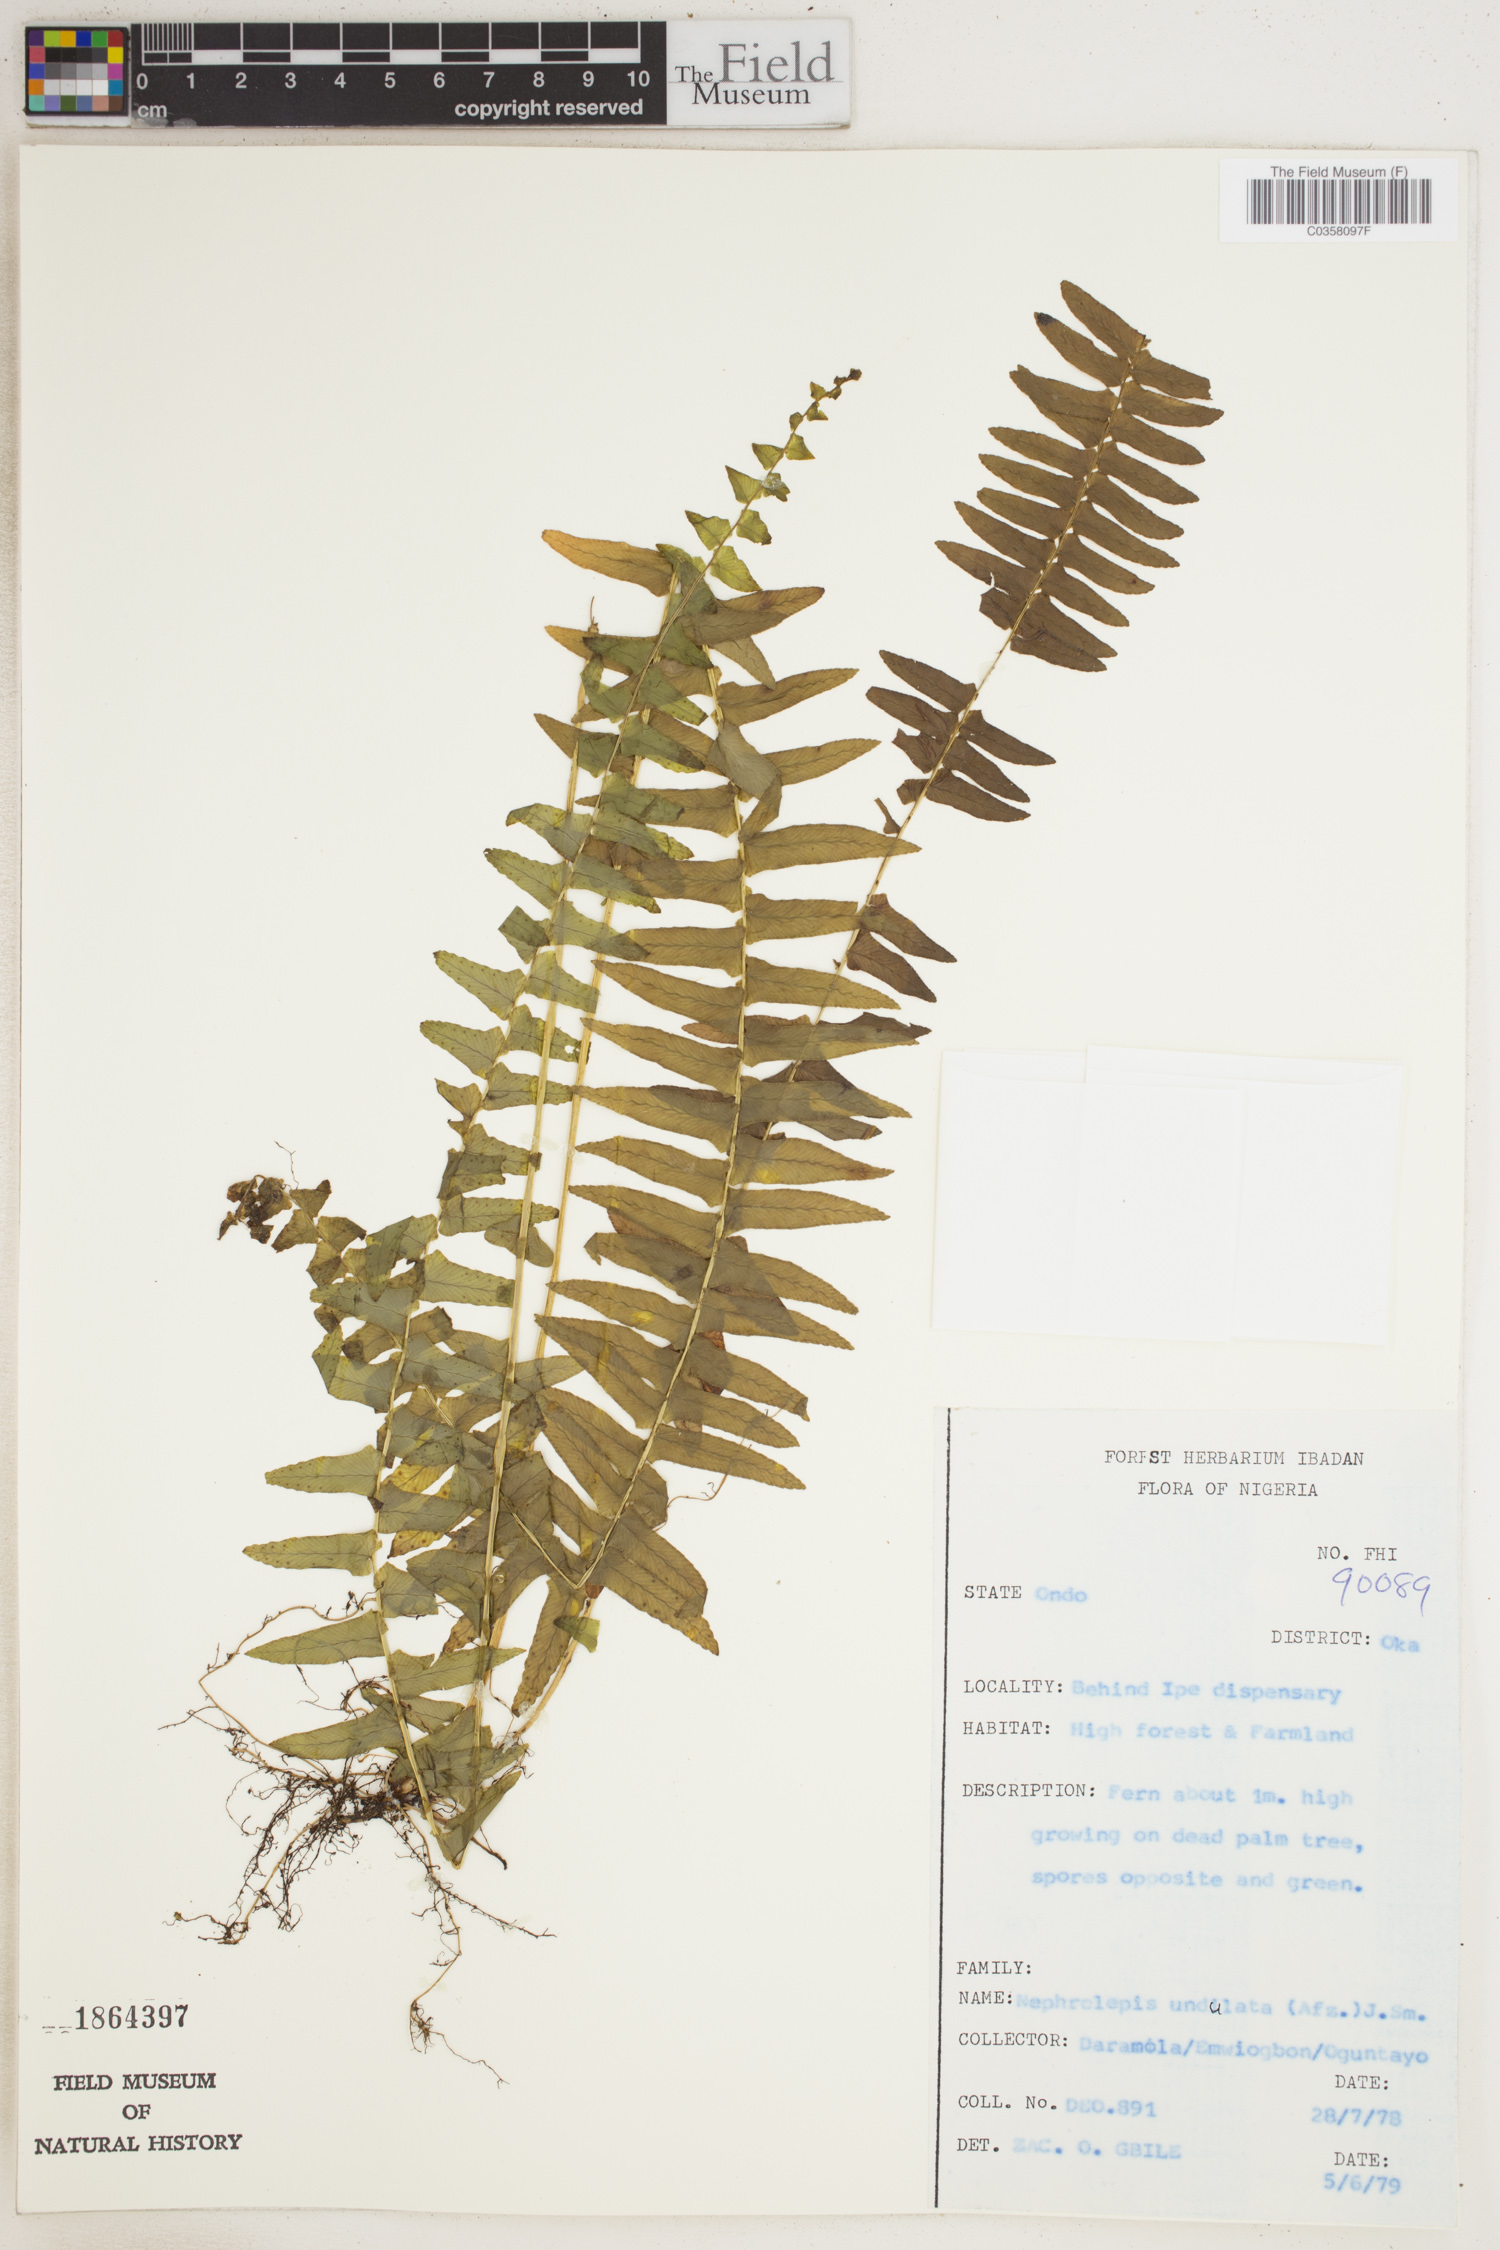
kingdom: Plantae
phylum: Tracheophyta
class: Polypodiopsida
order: Polypodiales
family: Nephrolepidaceae
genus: Nephrolepis
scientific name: Nephrolepis undulata
